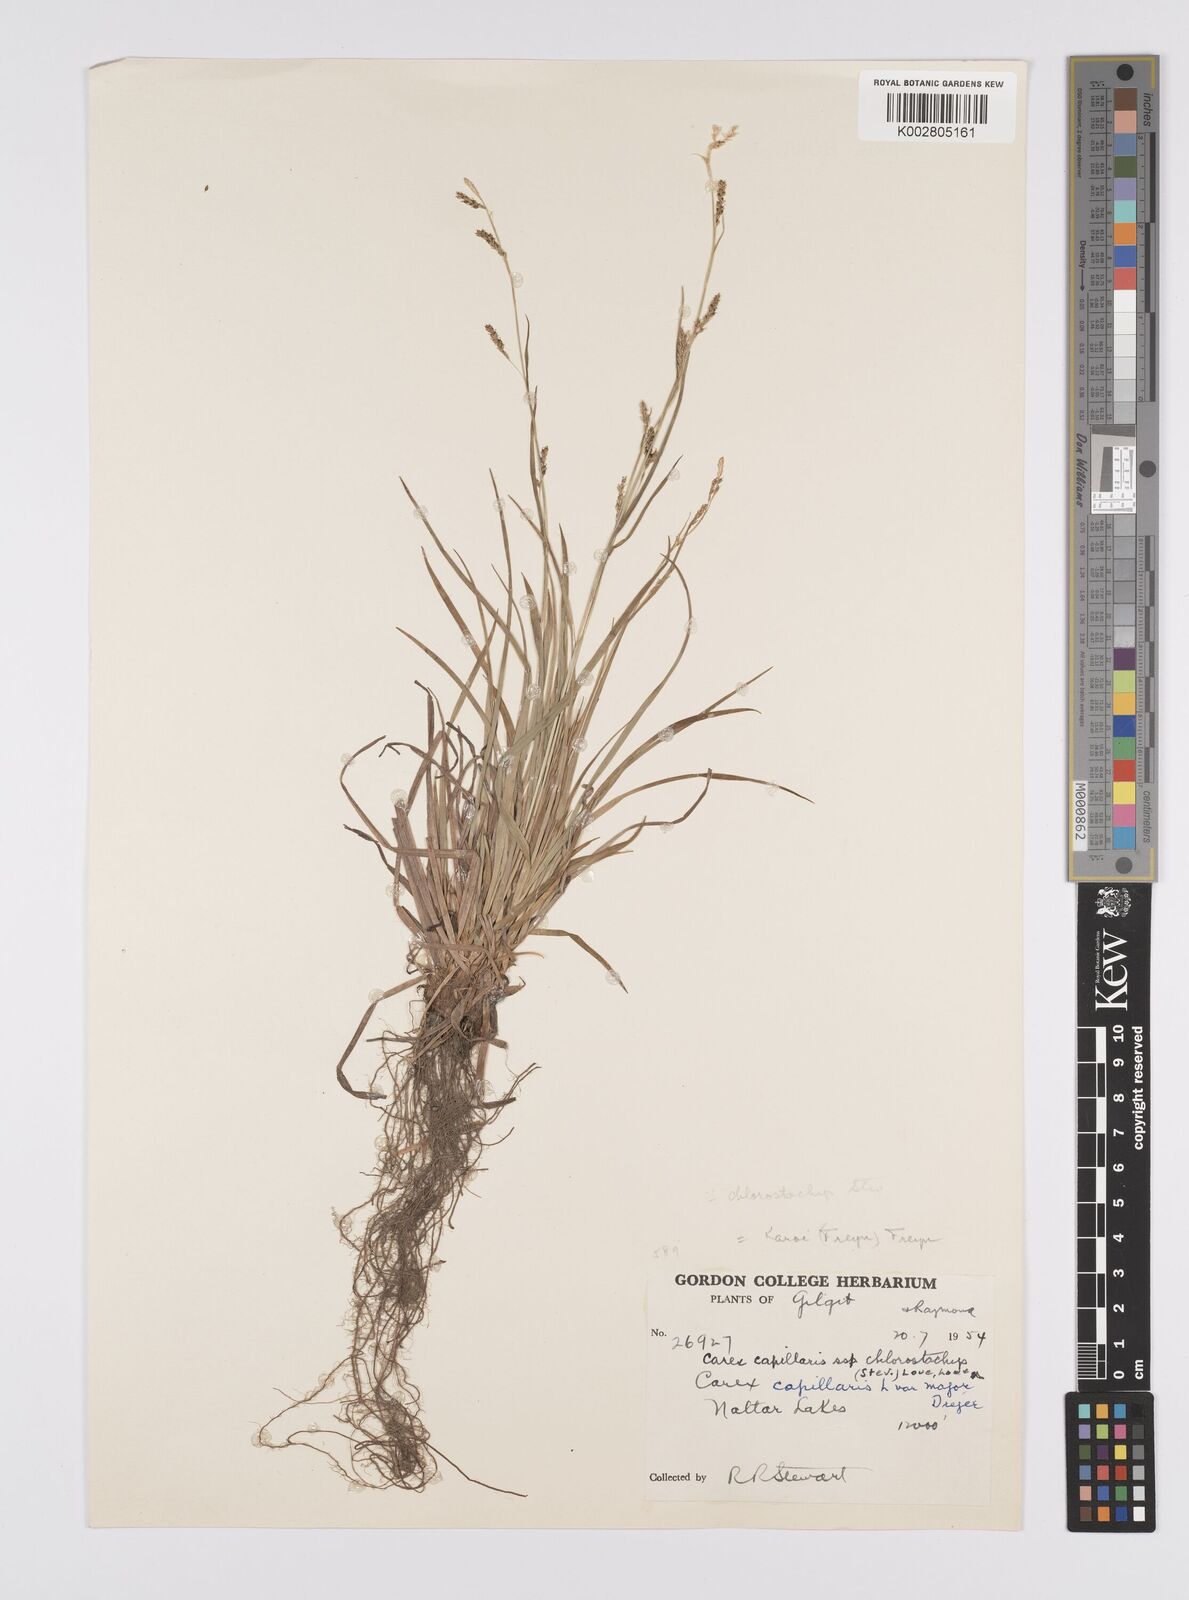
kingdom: Plantae
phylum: Tracheophyta
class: Liliopsida
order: Poales
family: Cyperaceae
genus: Carex
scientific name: Carex chlorostachys
